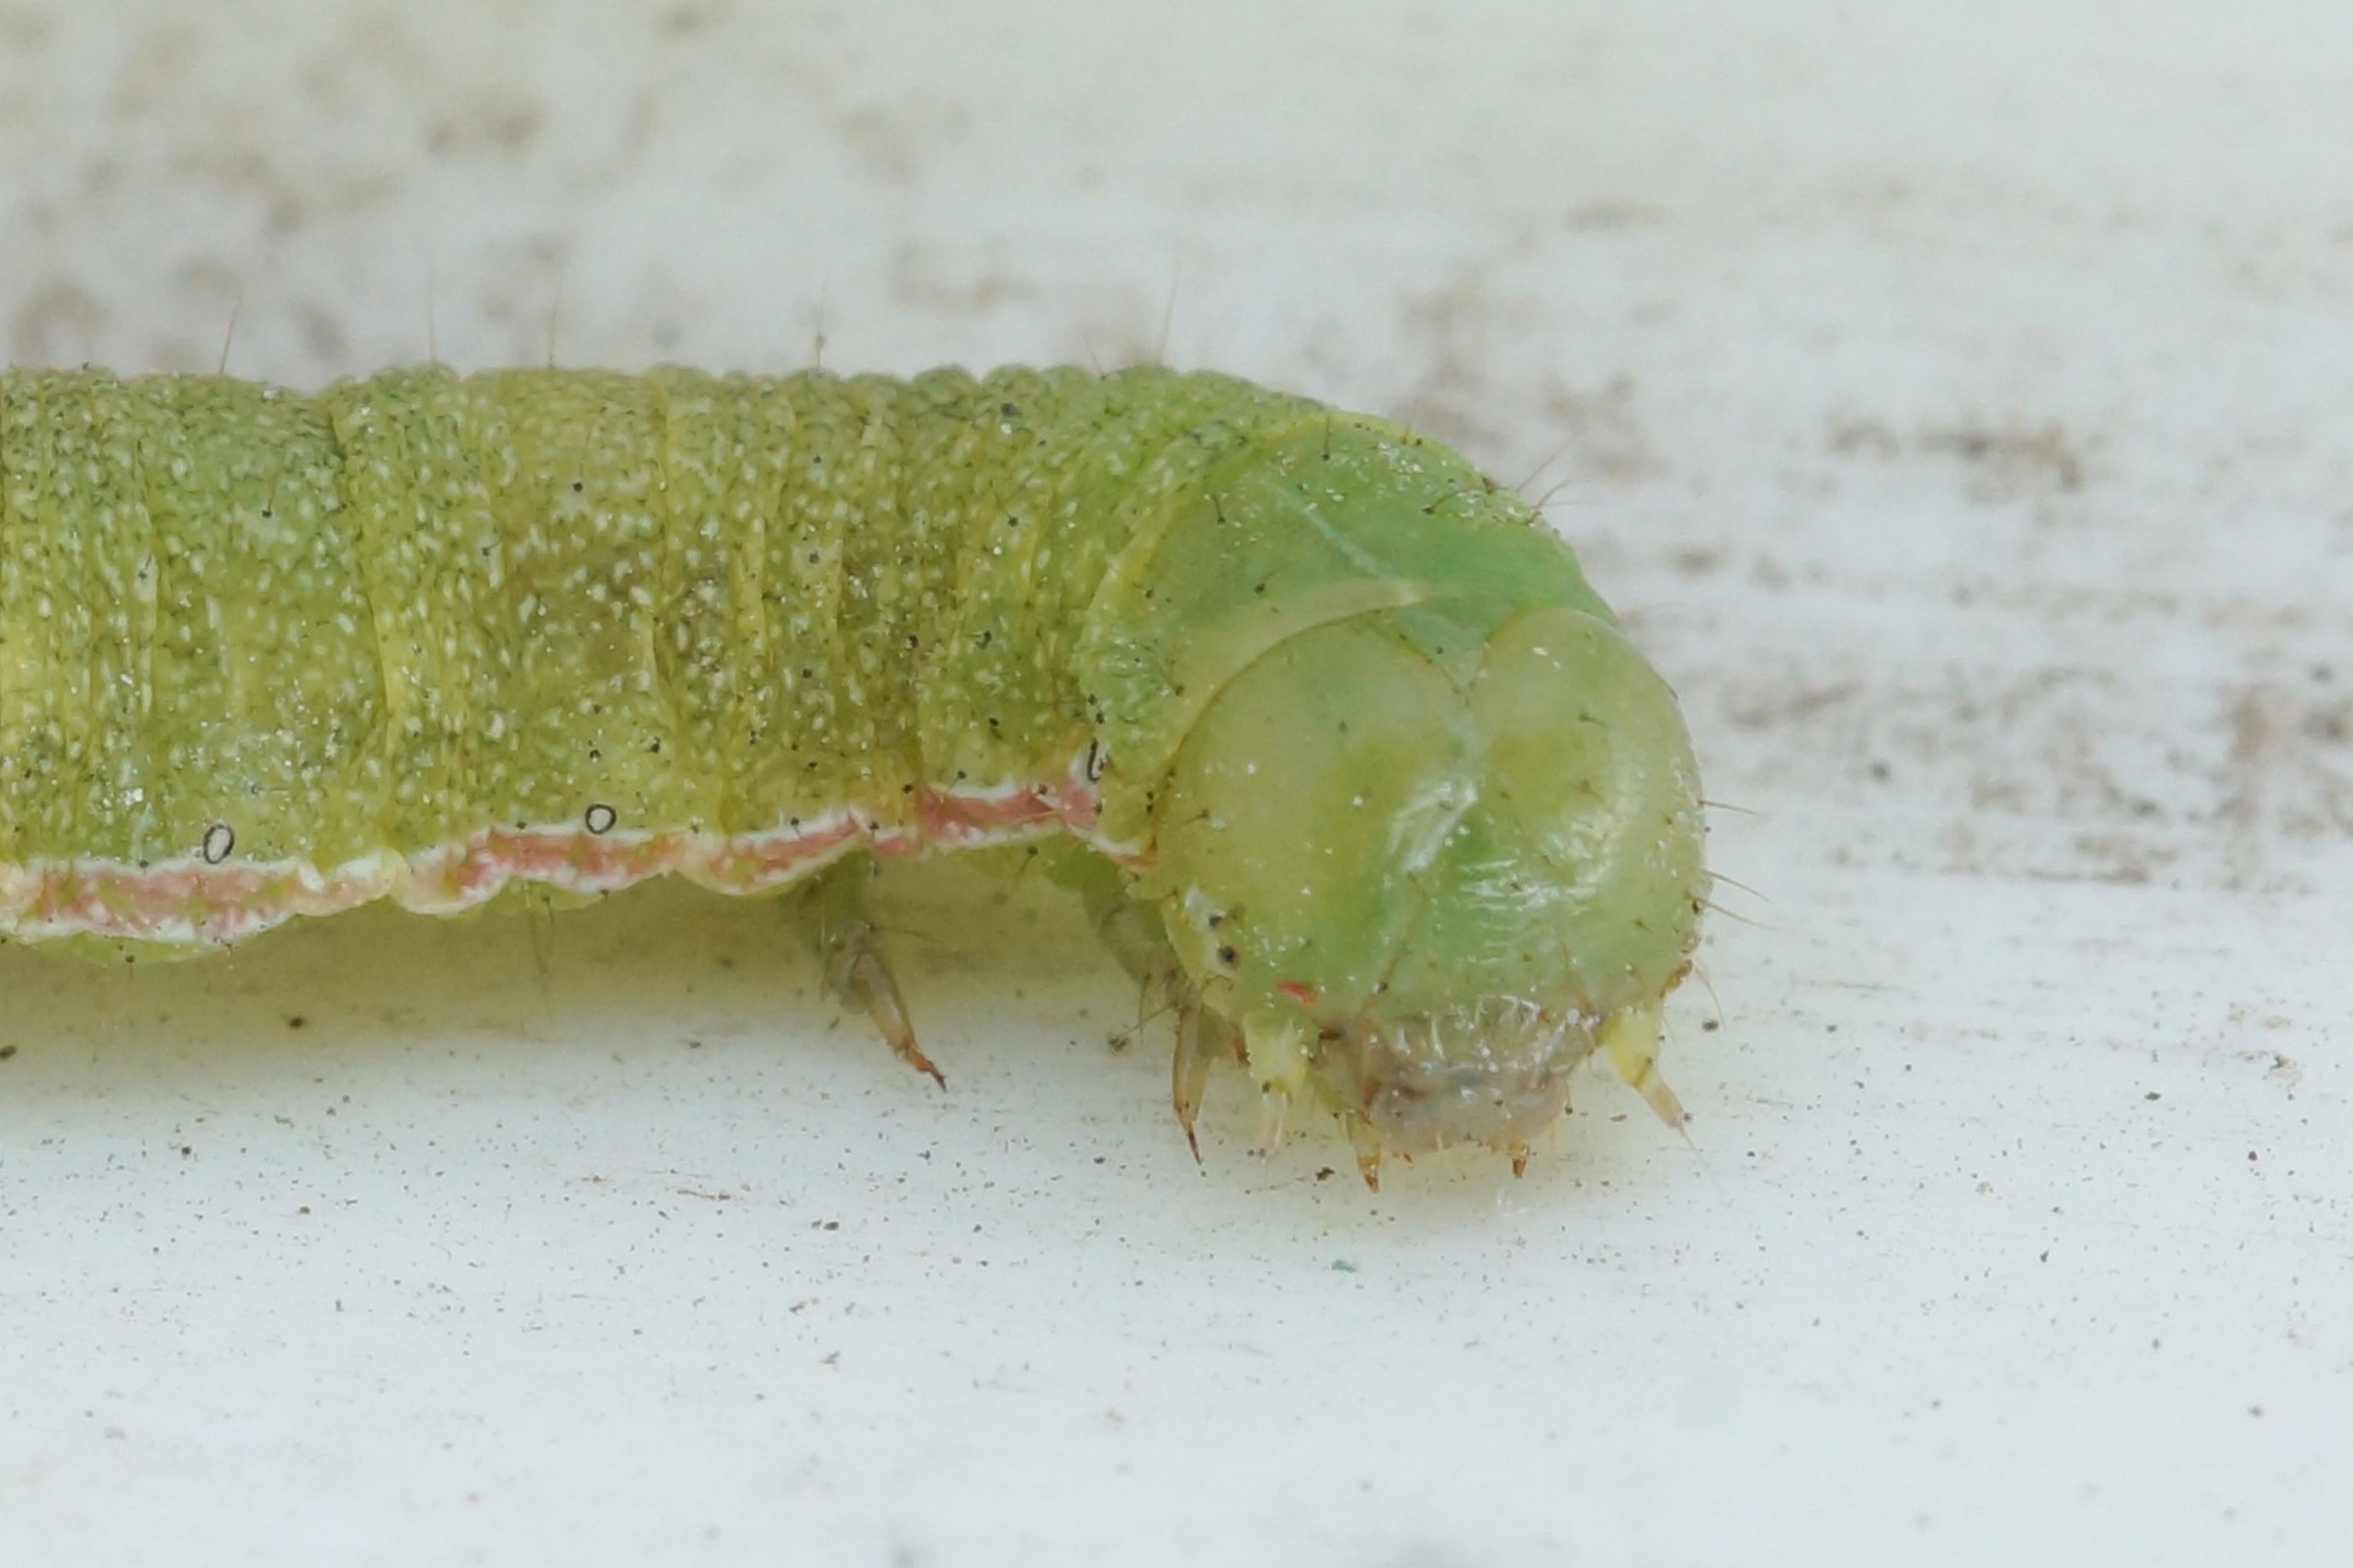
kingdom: Animalia
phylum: Arthropoda
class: Insecta
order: Lepidoptera
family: Noctuidae
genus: Anarta
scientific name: Anarta trifolii
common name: Bedeugle
